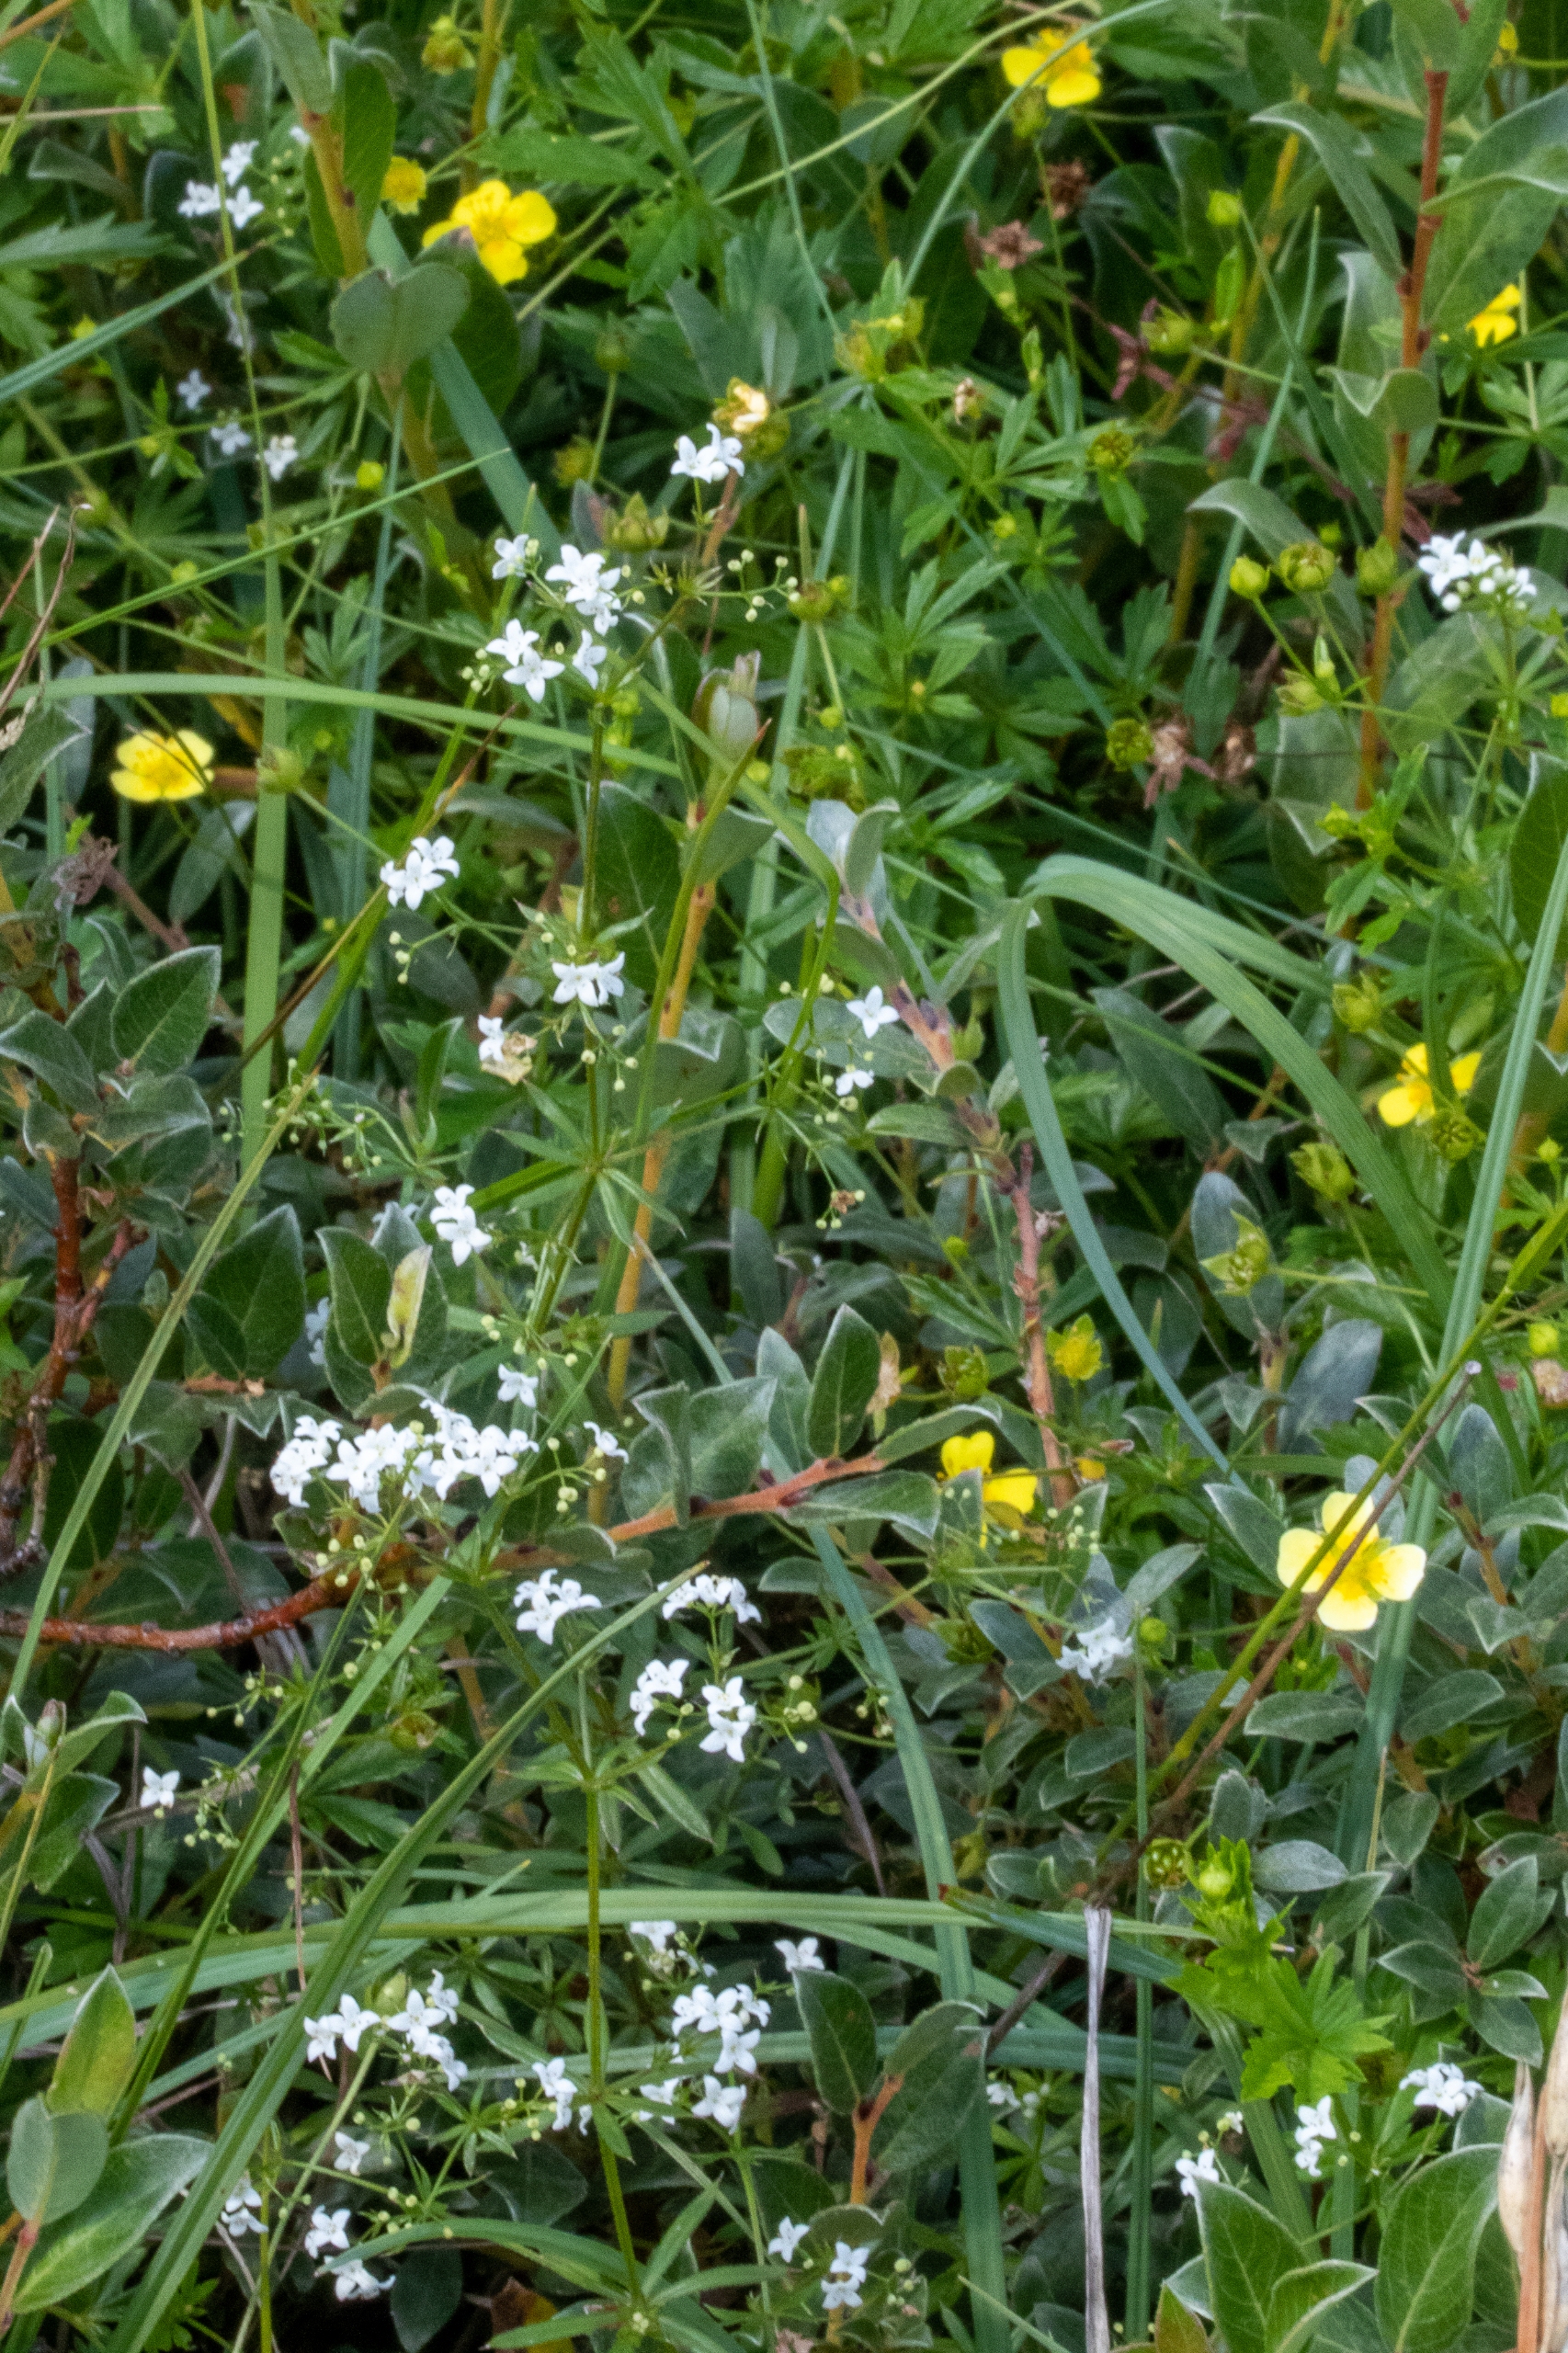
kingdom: Plantae
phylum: Tracheophyta
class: Magnoliopsida
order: Gentianales
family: Rubiaceae
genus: Galium
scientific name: Galium uliginosum
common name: Sump-snerre
